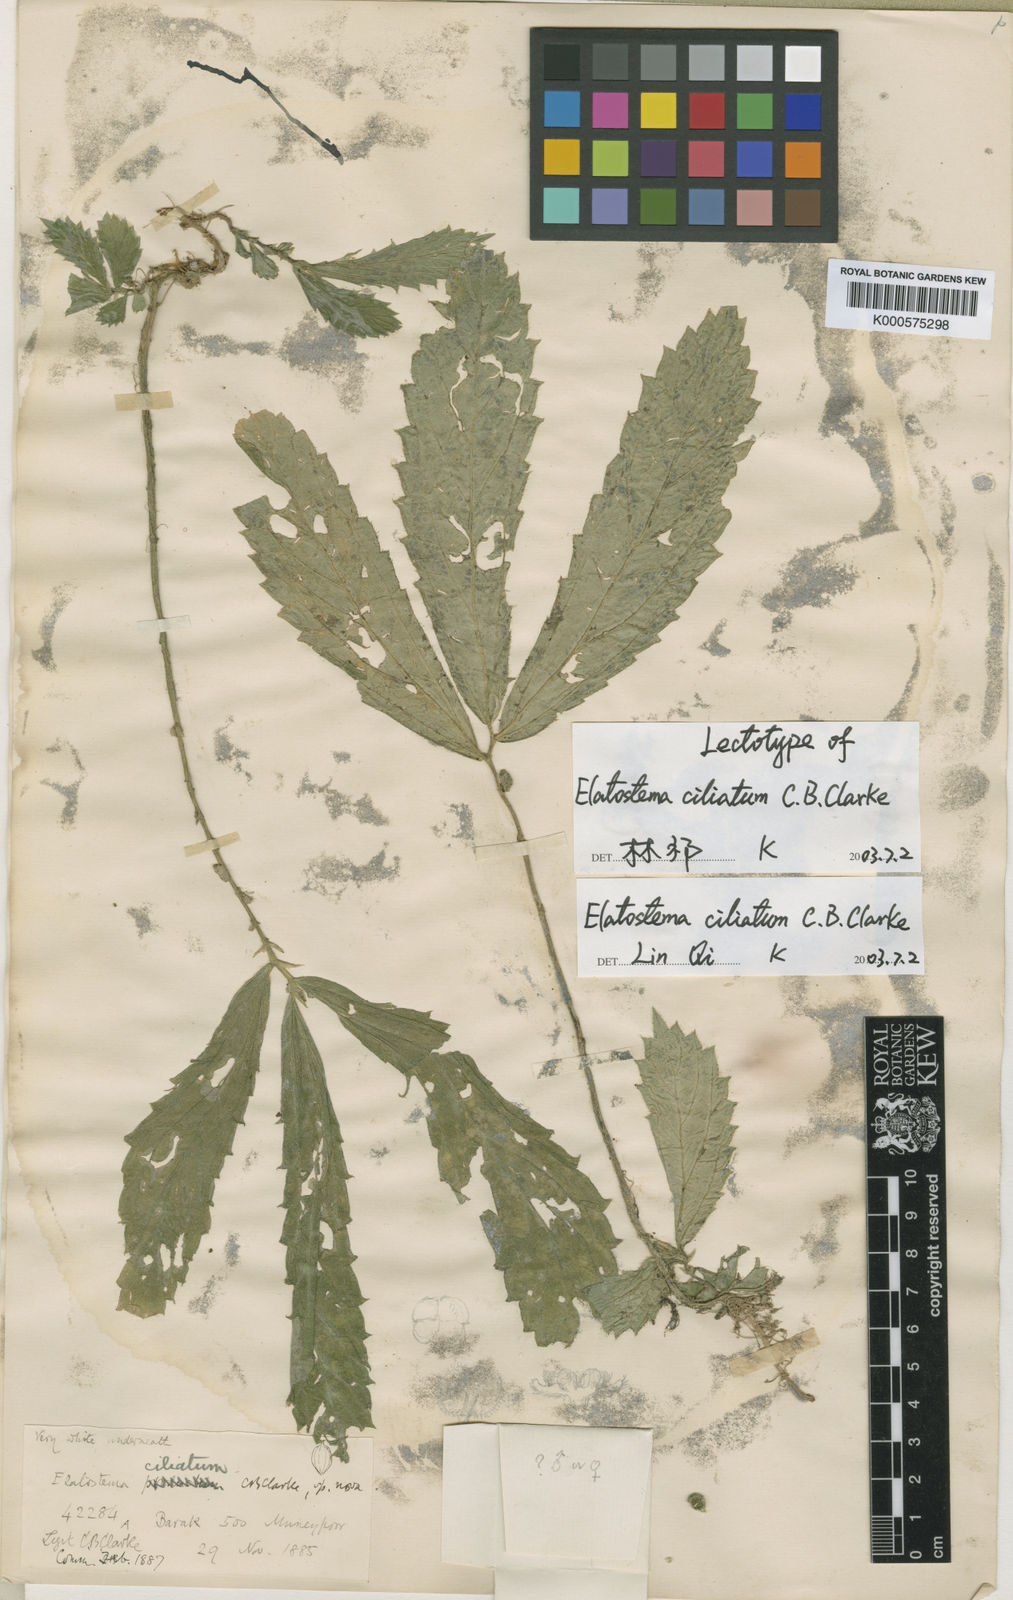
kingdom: Plantae
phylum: Tracheophyta
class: Magnoliopsida
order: Rosales
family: Urticaceae
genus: Elatostema
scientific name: Elatostema ciliatum
